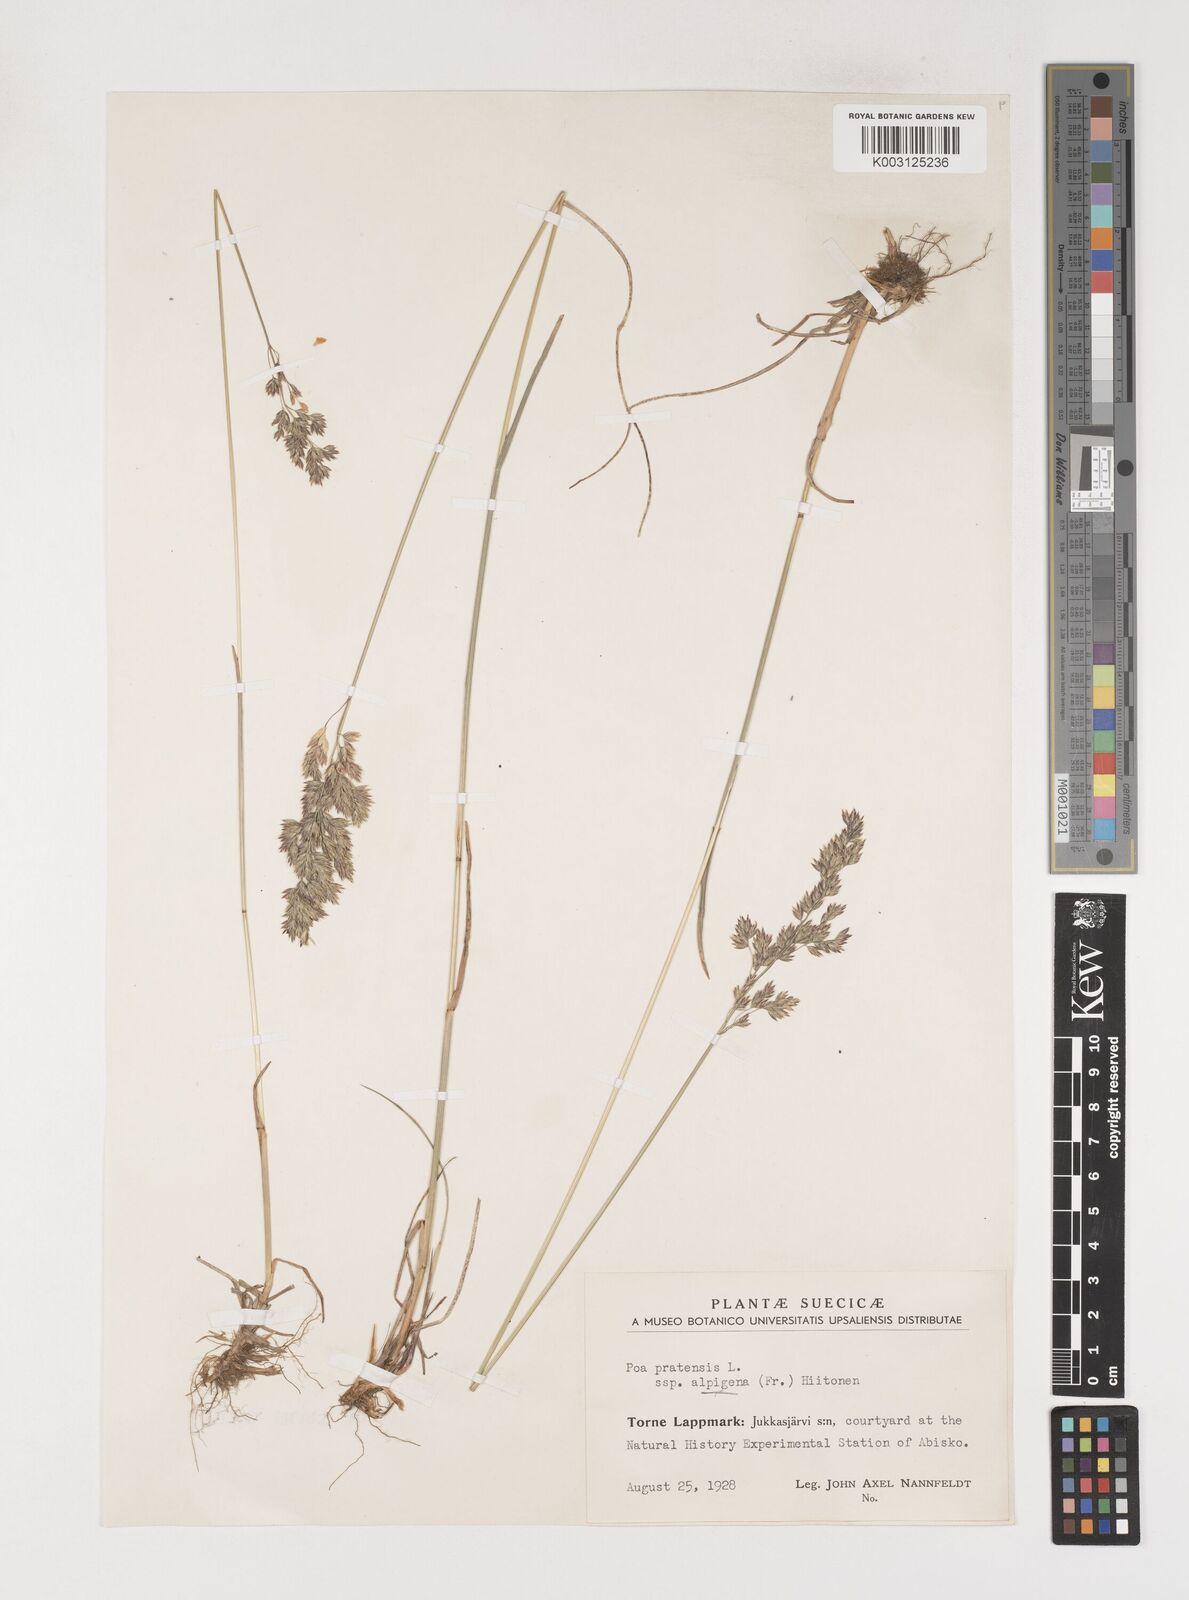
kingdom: Plantae
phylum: Tracheophyta
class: Liliopsida
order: Poales
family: Poaceae
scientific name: Poaceae
